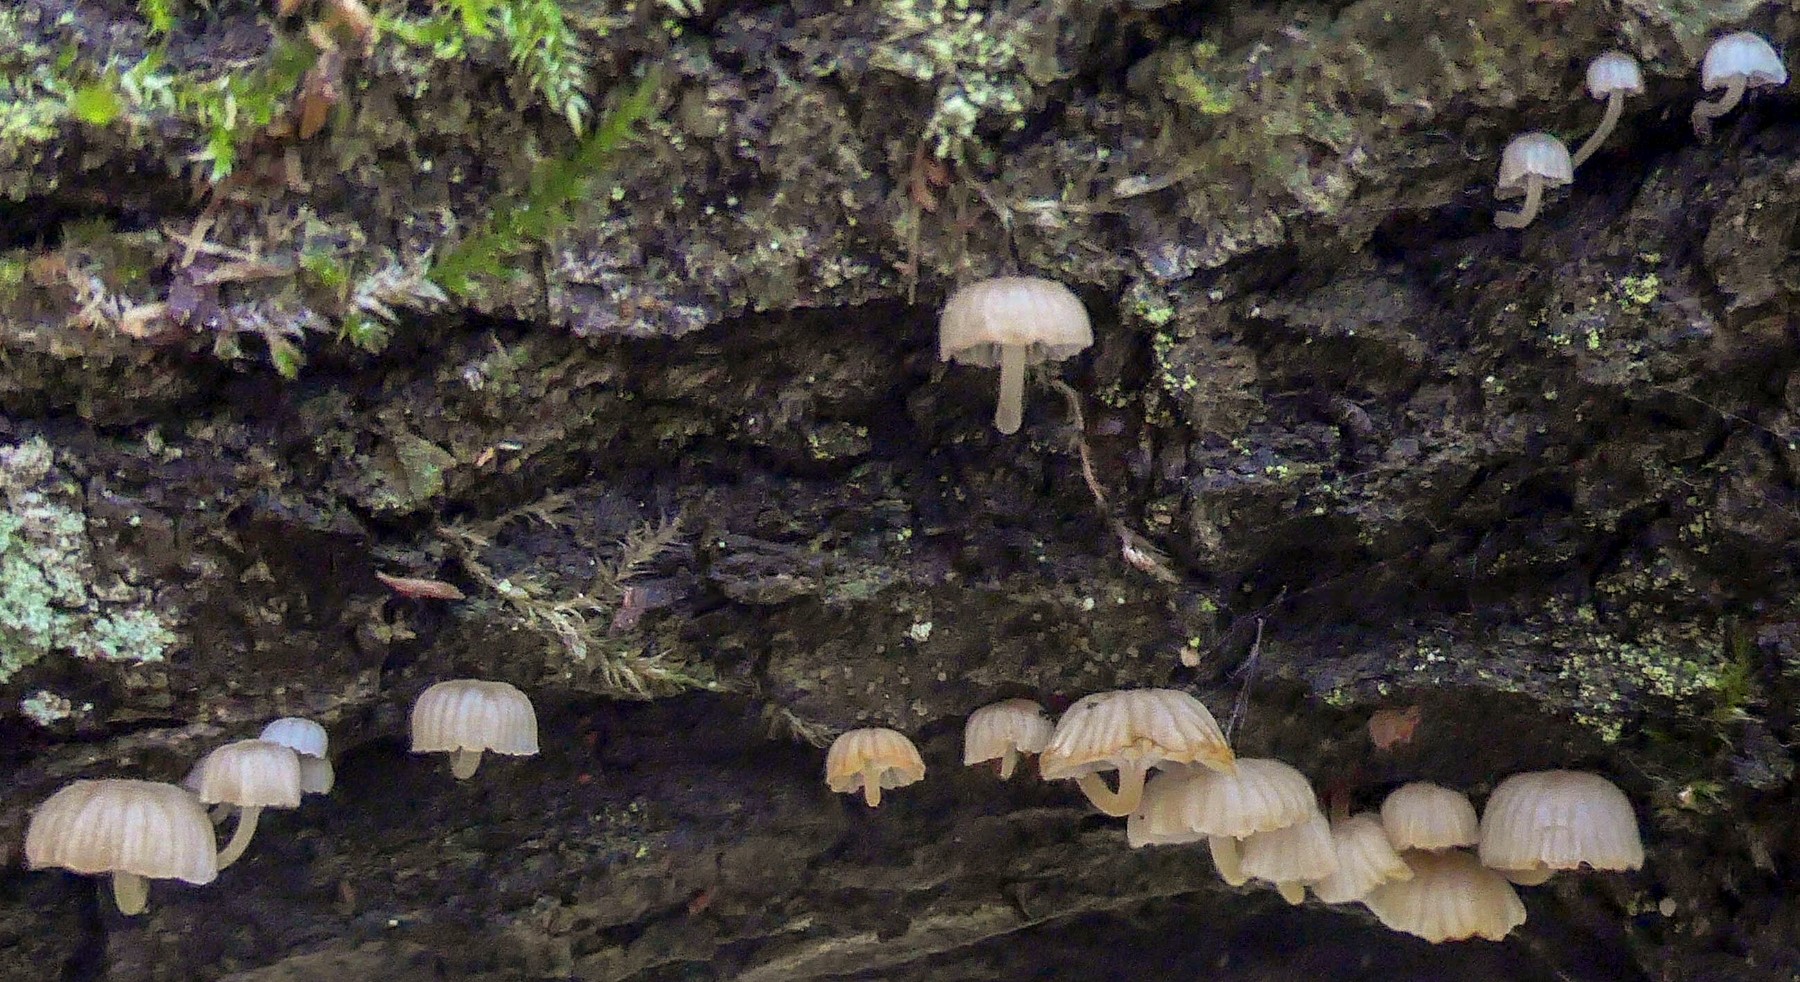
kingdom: Fungi
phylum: Basidiomycota
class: Agaricomycetes
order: Agaricales
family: Mycenaceae
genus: Mycena
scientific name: Mycena pseudocorticola
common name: gråblå bark-huesvamp
